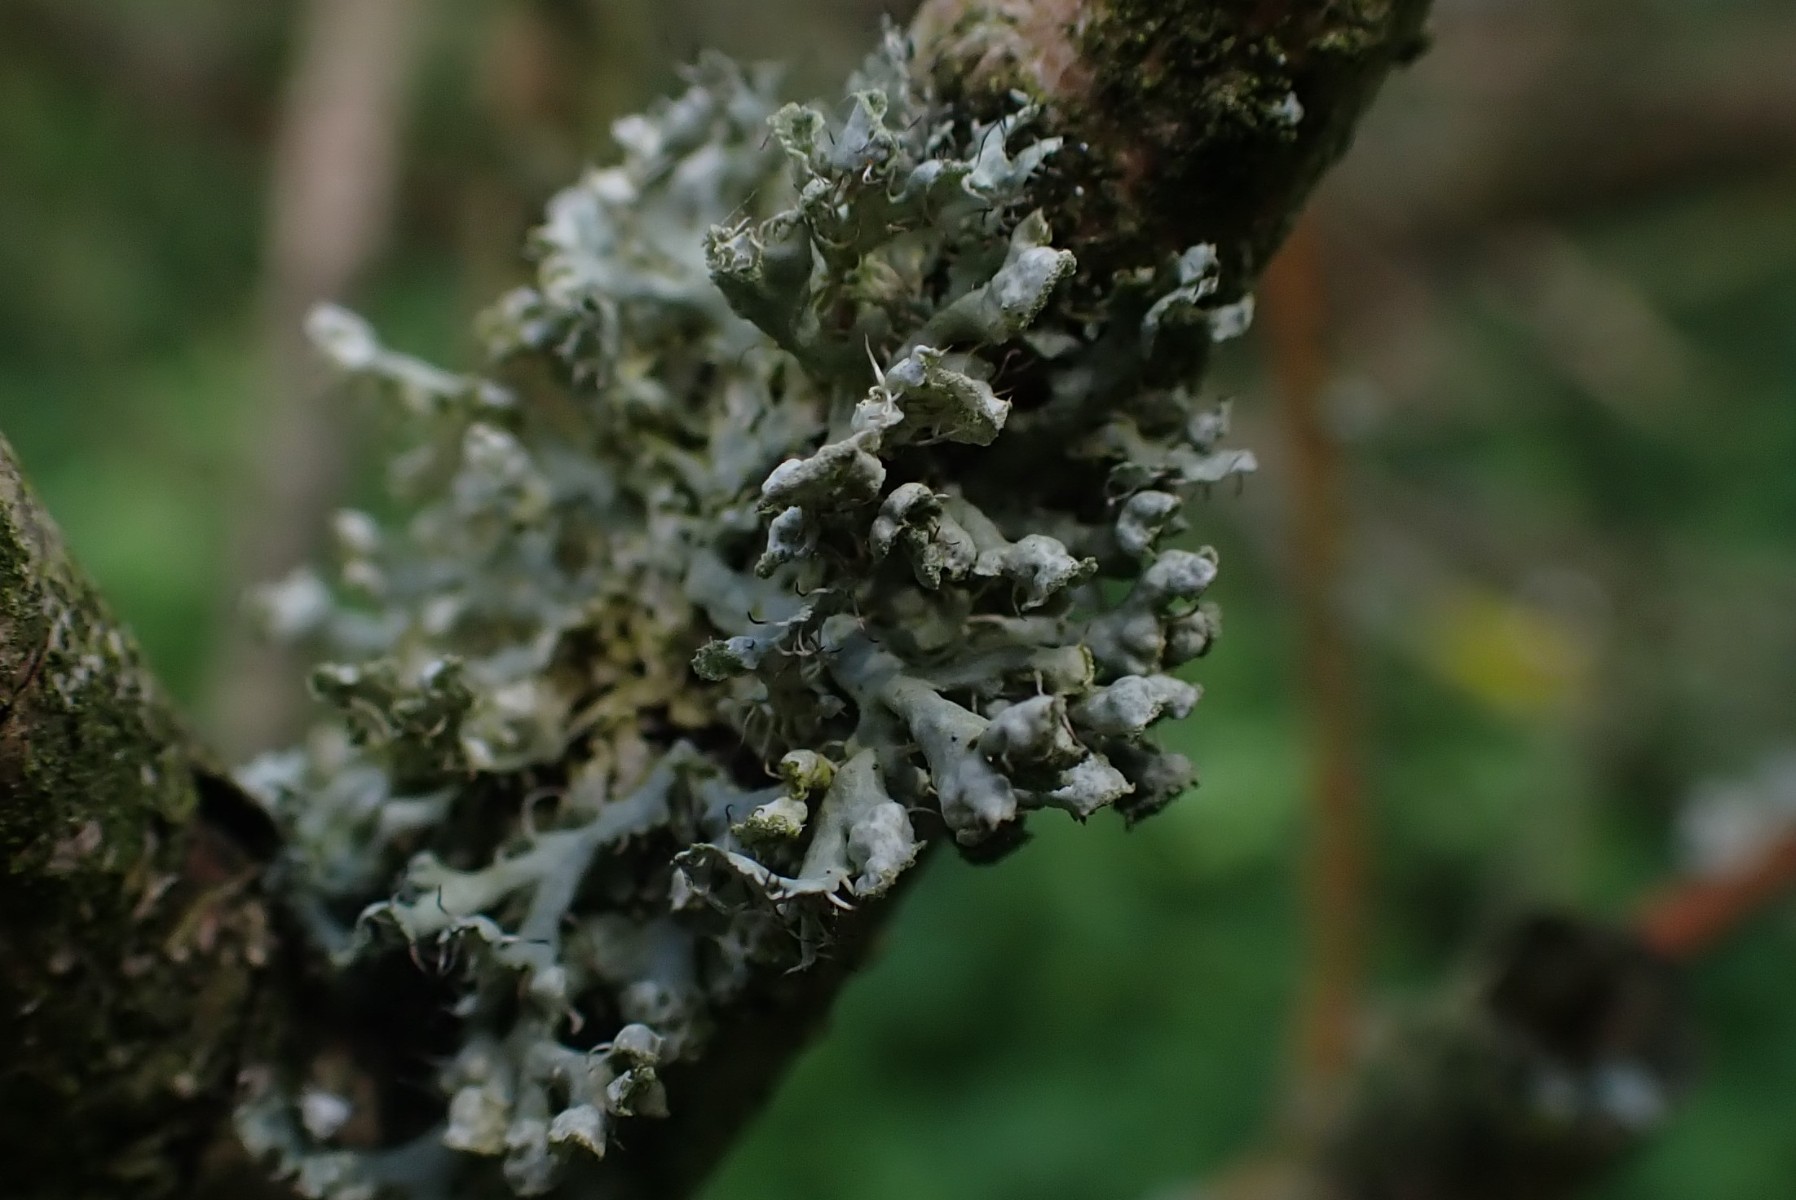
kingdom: Fungi
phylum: Ascomycota
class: Lecanoromycetes
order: Caliciales
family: Physciaceae
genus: Physcia
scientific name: Physcia adscendens
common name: hætte-rosetlav
